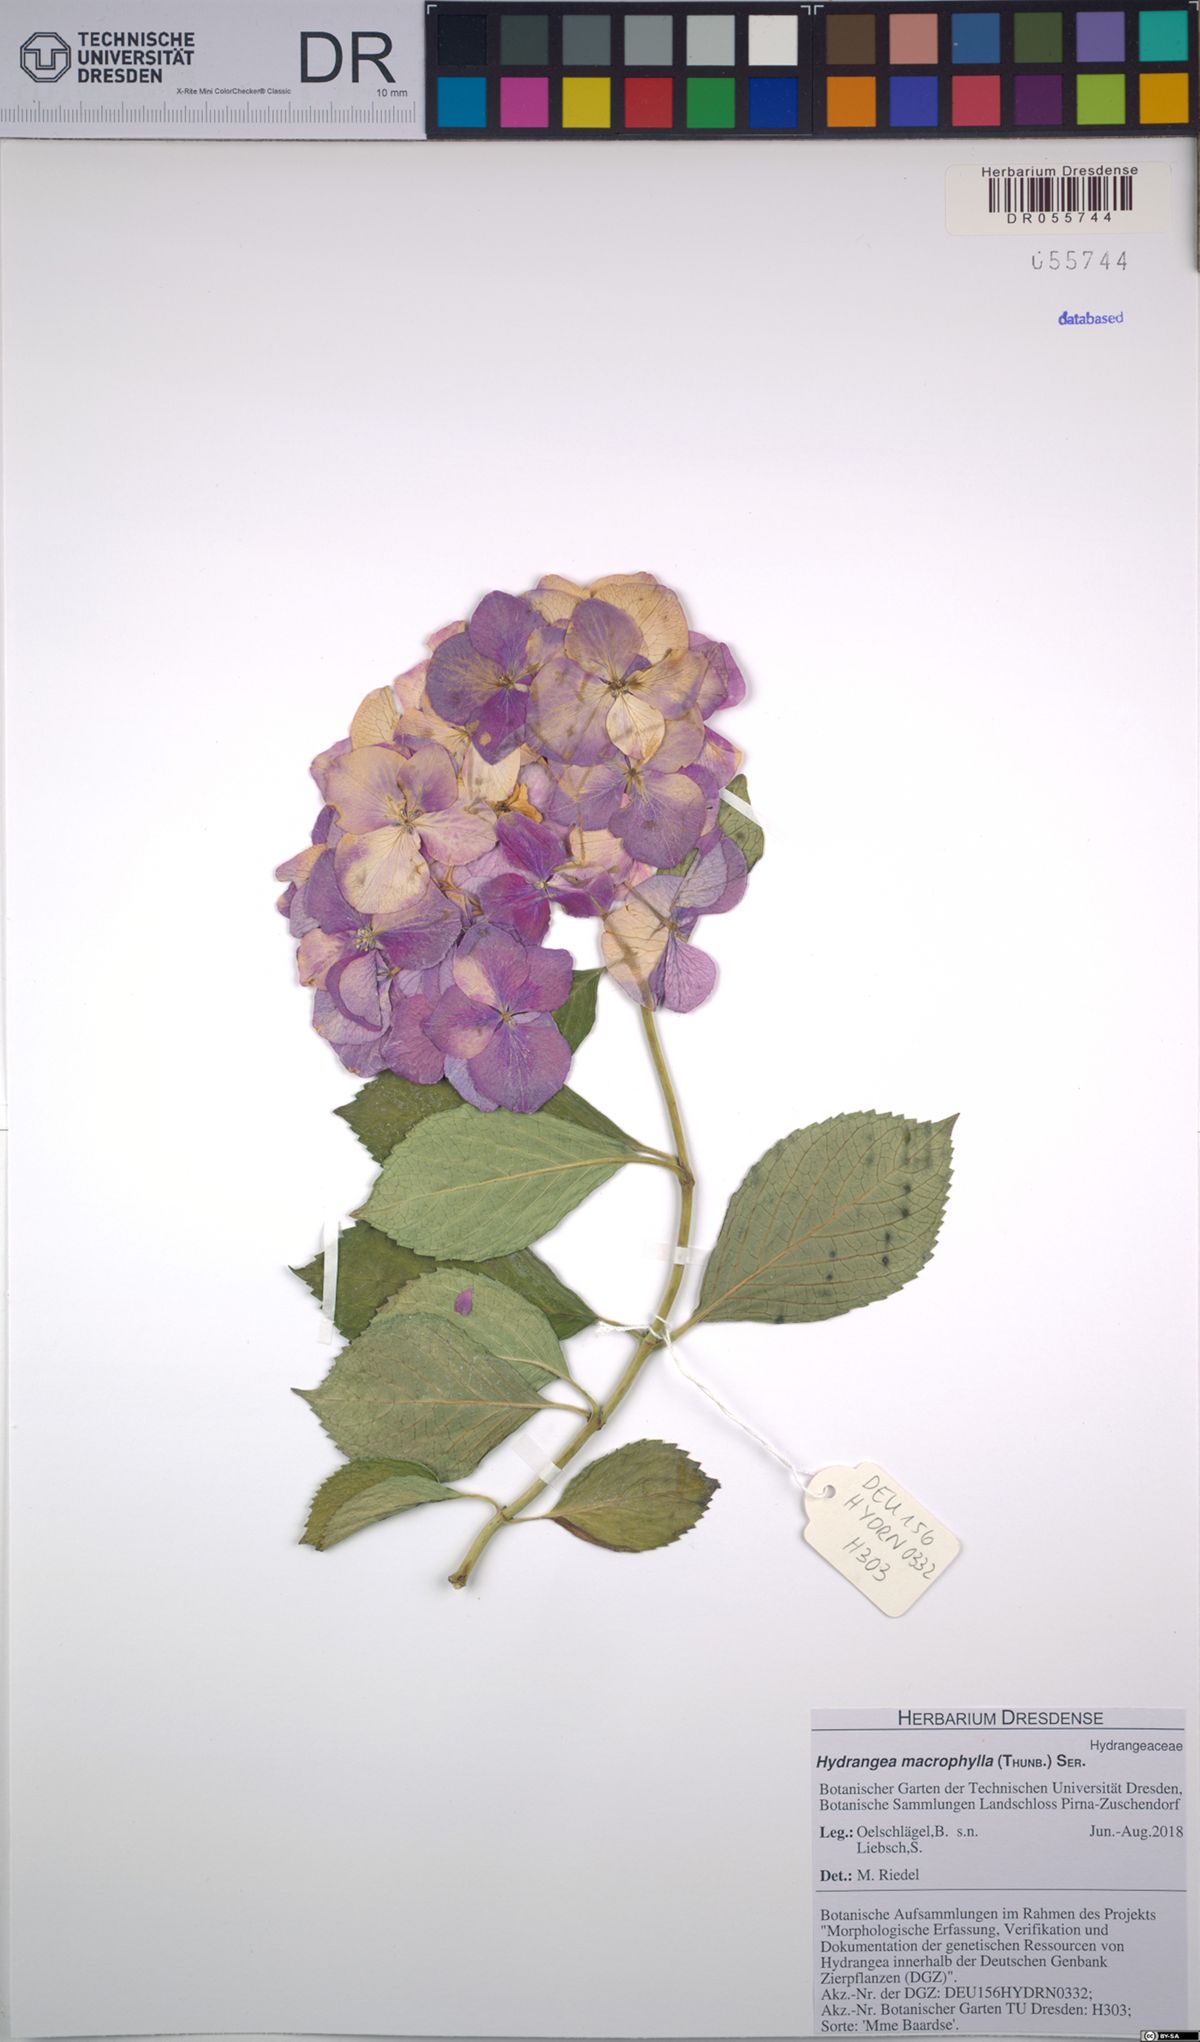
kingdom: Plantae
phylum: Tracheophyta
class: Magnoliopsida
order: Cornales
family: Hydrangeaceae
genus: Hydrangea
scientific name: Hydrangea macrophylla
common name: Hydrangea
